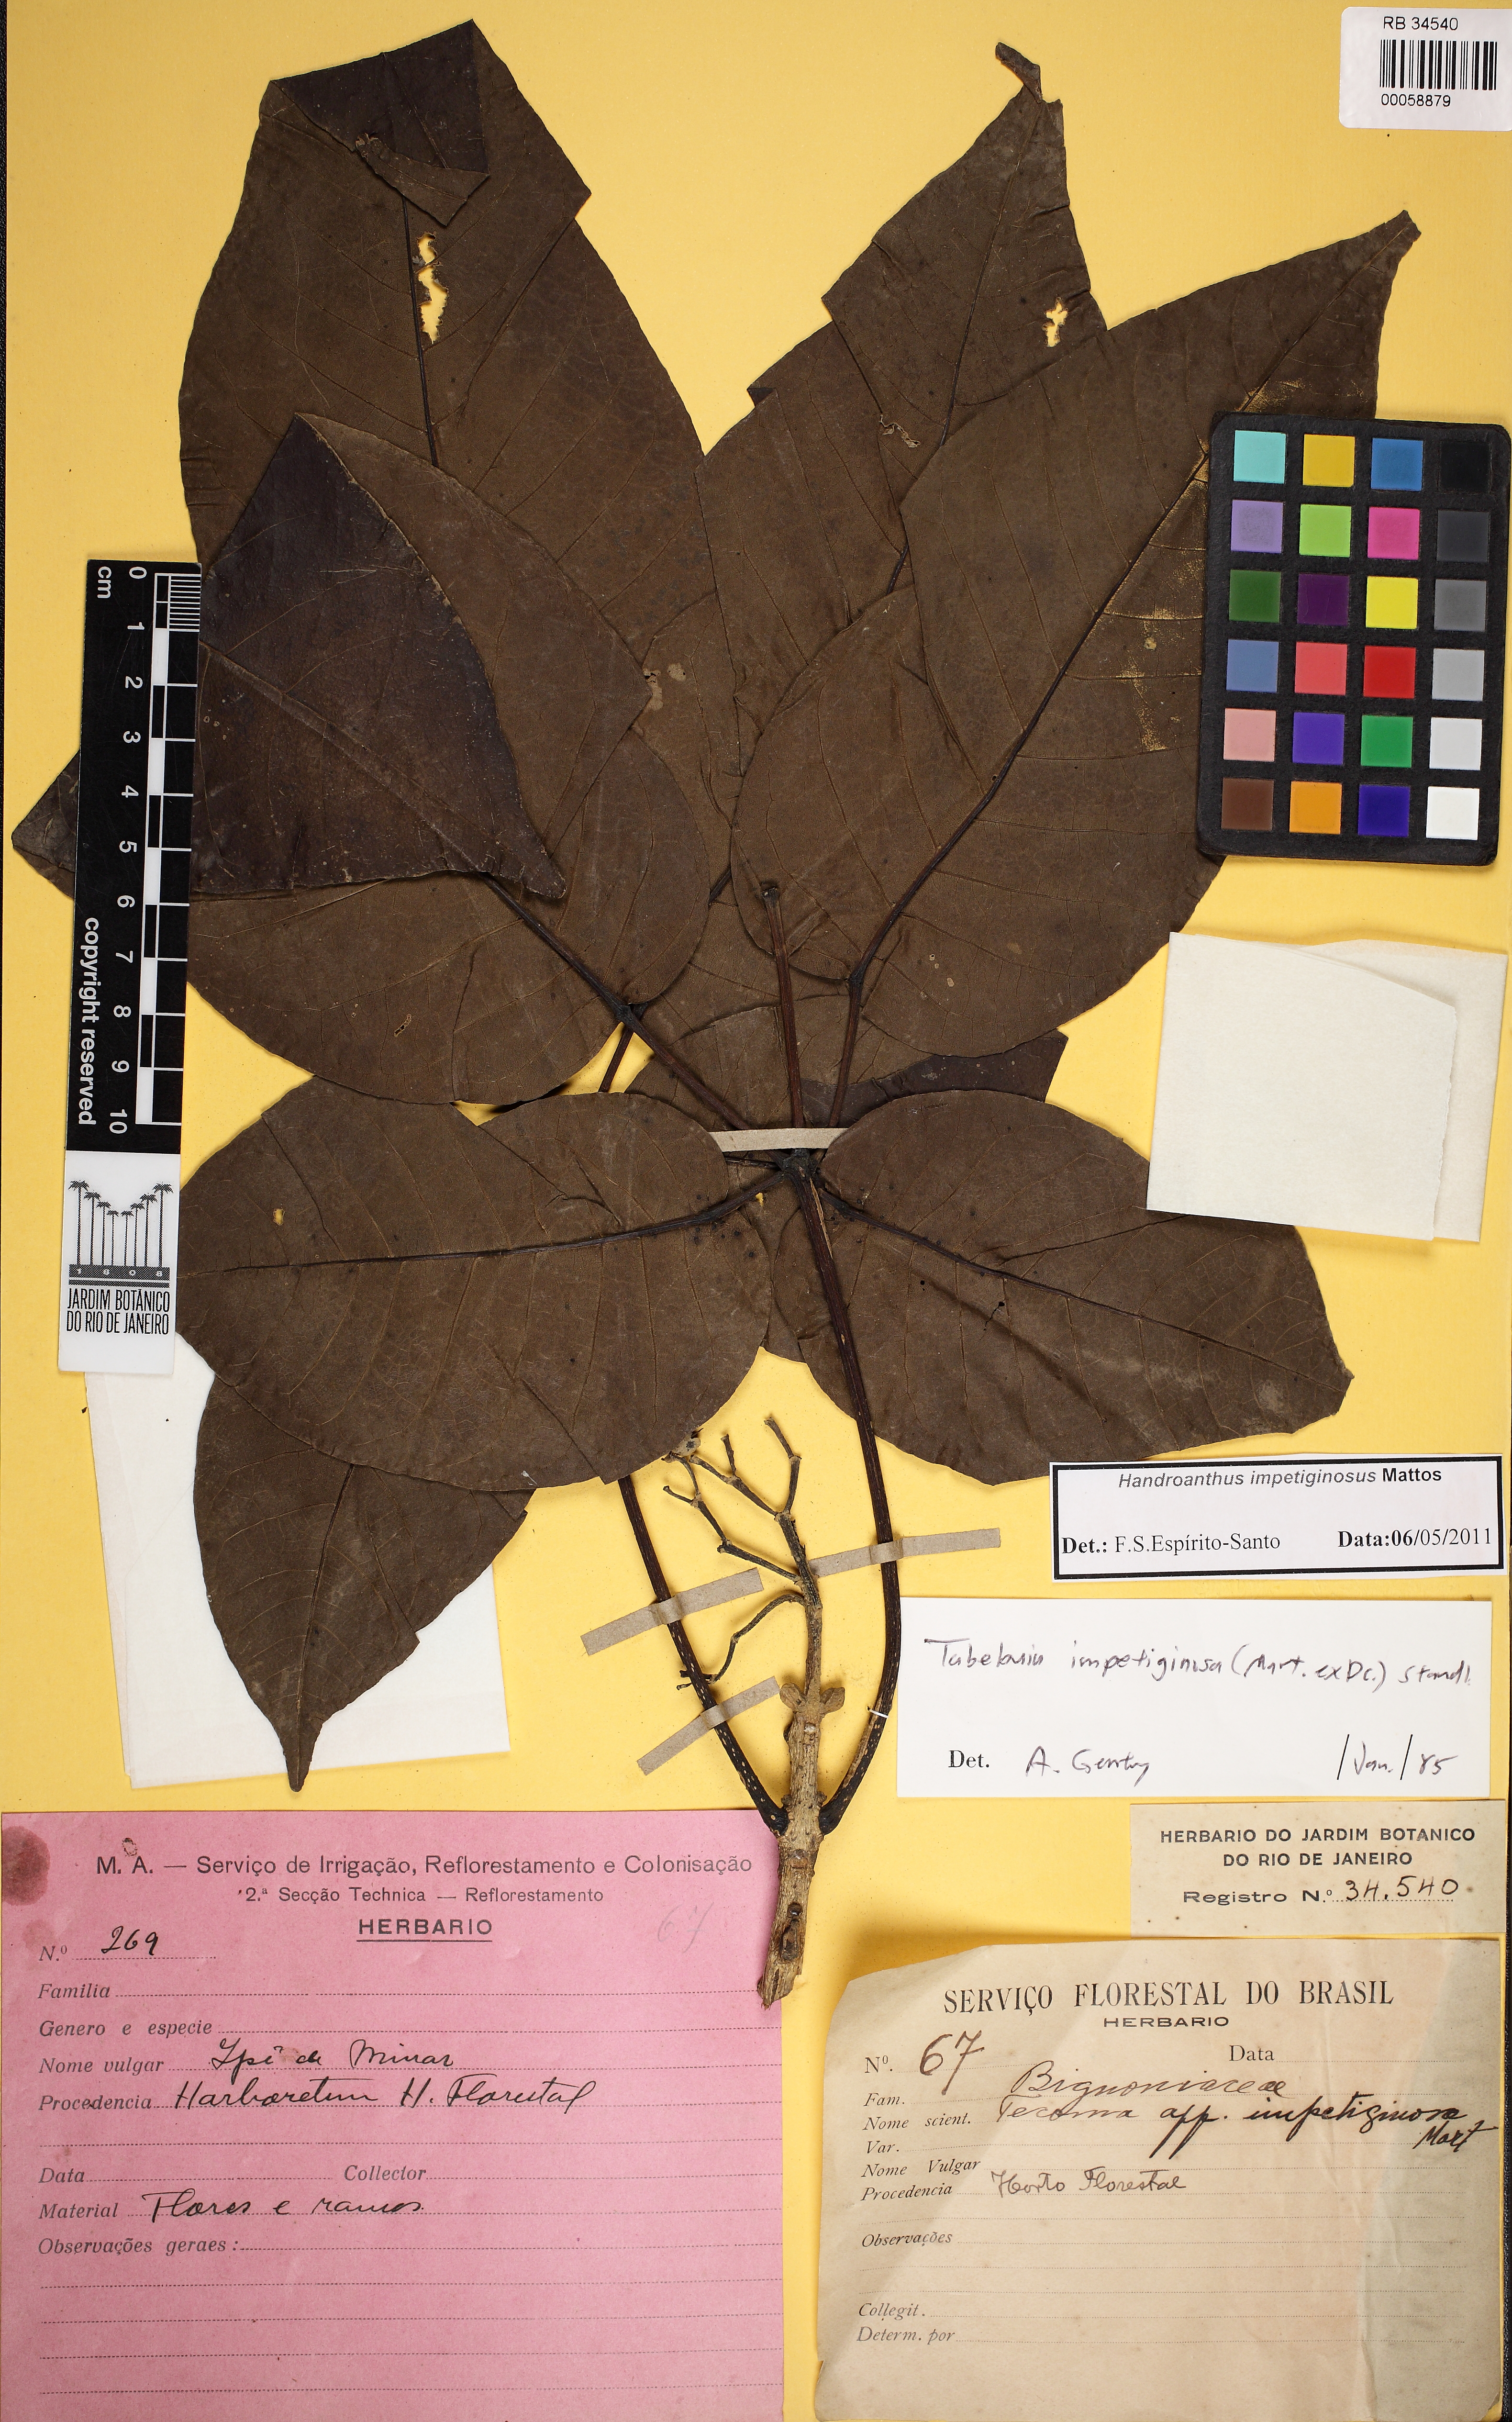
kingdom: Plantae
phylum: Tracheophyta
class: Magnoliopsida
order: Lamiales
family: Bignoniaceae
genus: Handroanthus
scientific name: Handroanthus impetiginosum
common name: Pink trumpet tree
